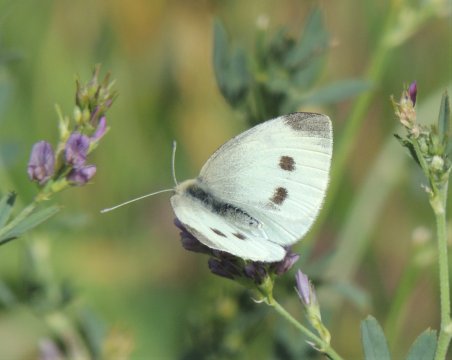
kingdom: Animalia
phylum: Arthropoda
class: Insecta
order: Lepidoptera
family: Pieridae
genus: Pieris
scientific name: Pieris rapae
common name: Cabbage White
